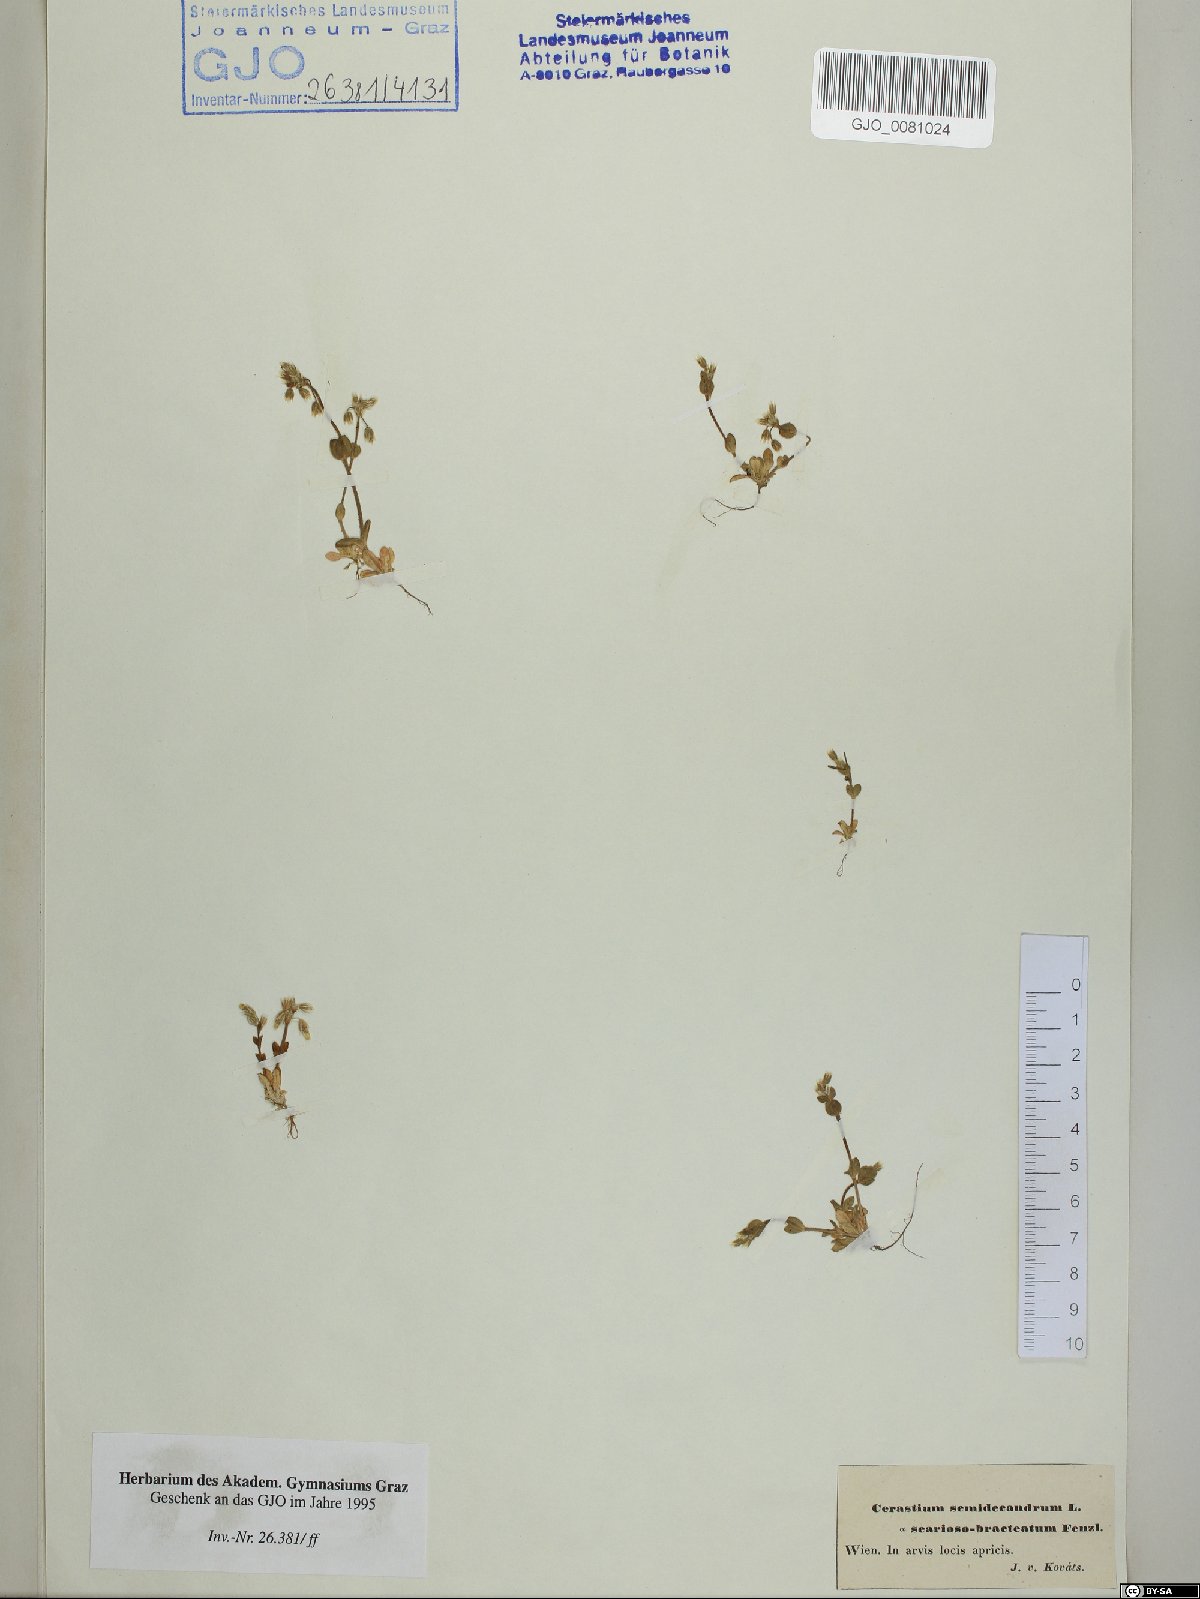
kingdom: Plantae
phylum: Tracheophyta
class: Magnoliopsida
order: Caryophyllales
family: Caryophyllaceae
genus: Cerastium
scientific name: Cerastium semidecandrum
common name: Little mouse-ear
